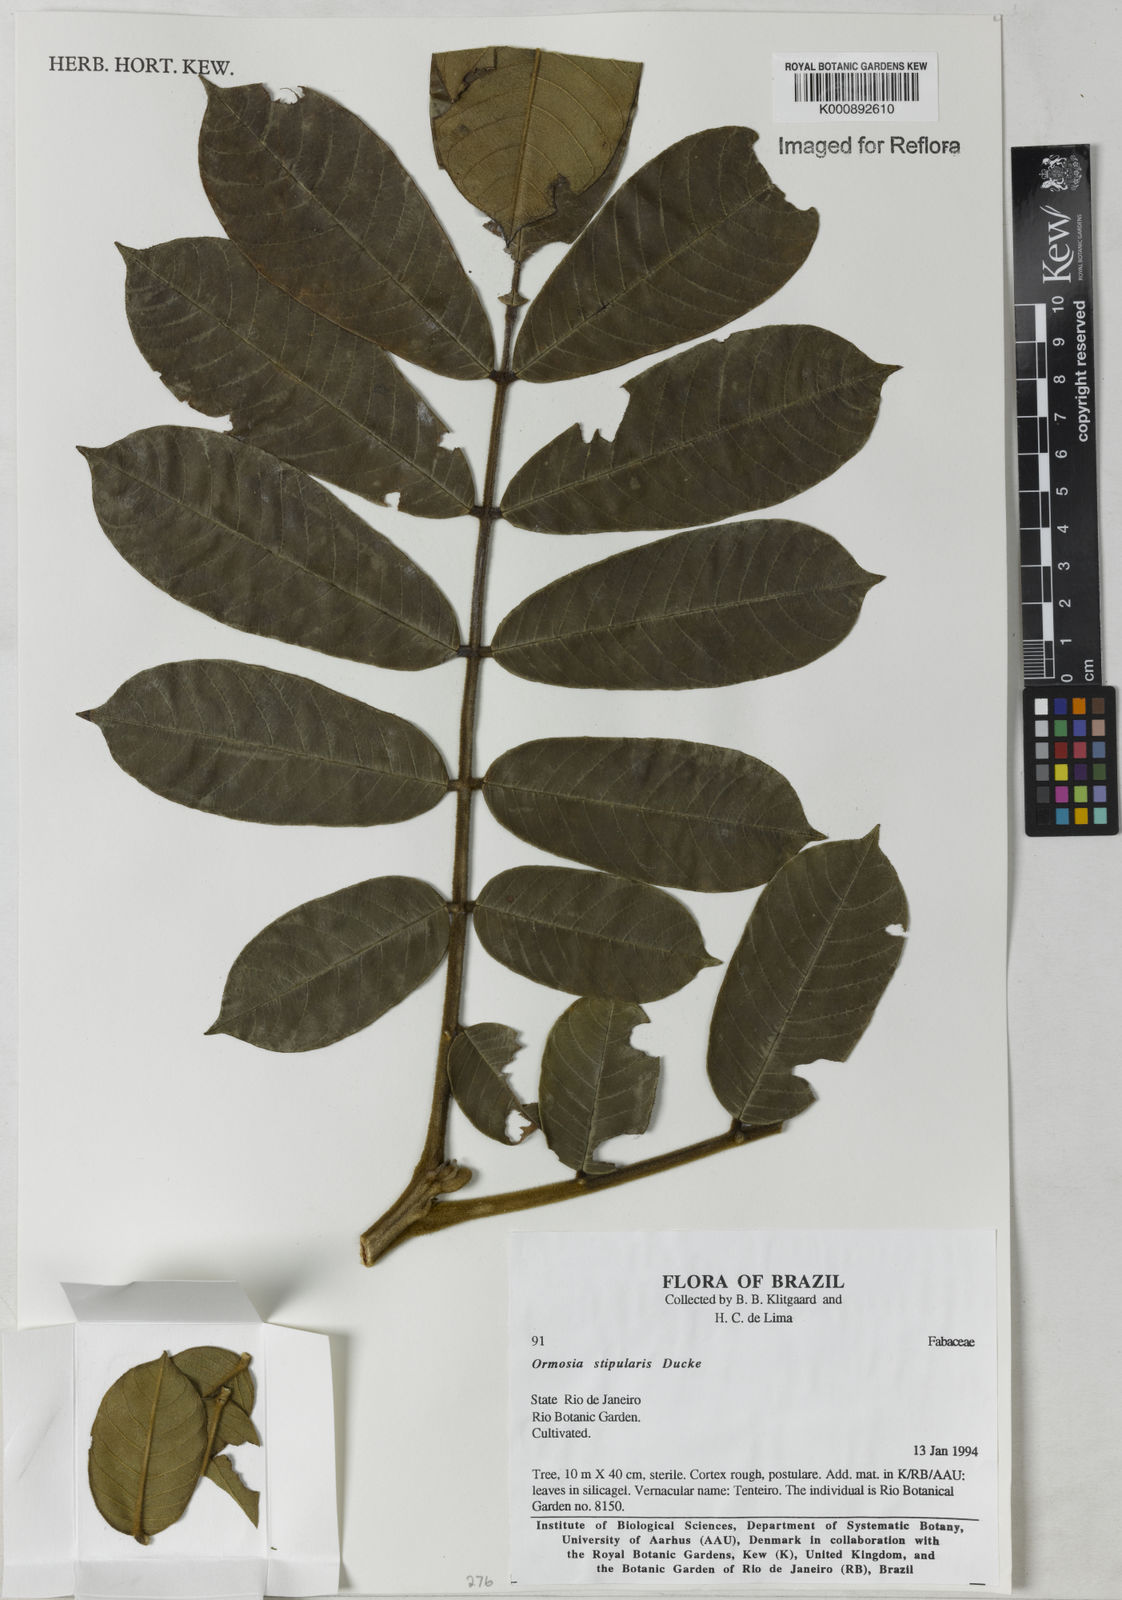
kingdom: Plantae
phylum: Tracheophyta
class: Magnoliopsida
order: Fabales
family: Fabaceae
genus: Ormosia
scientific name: Ormosia stipularis
